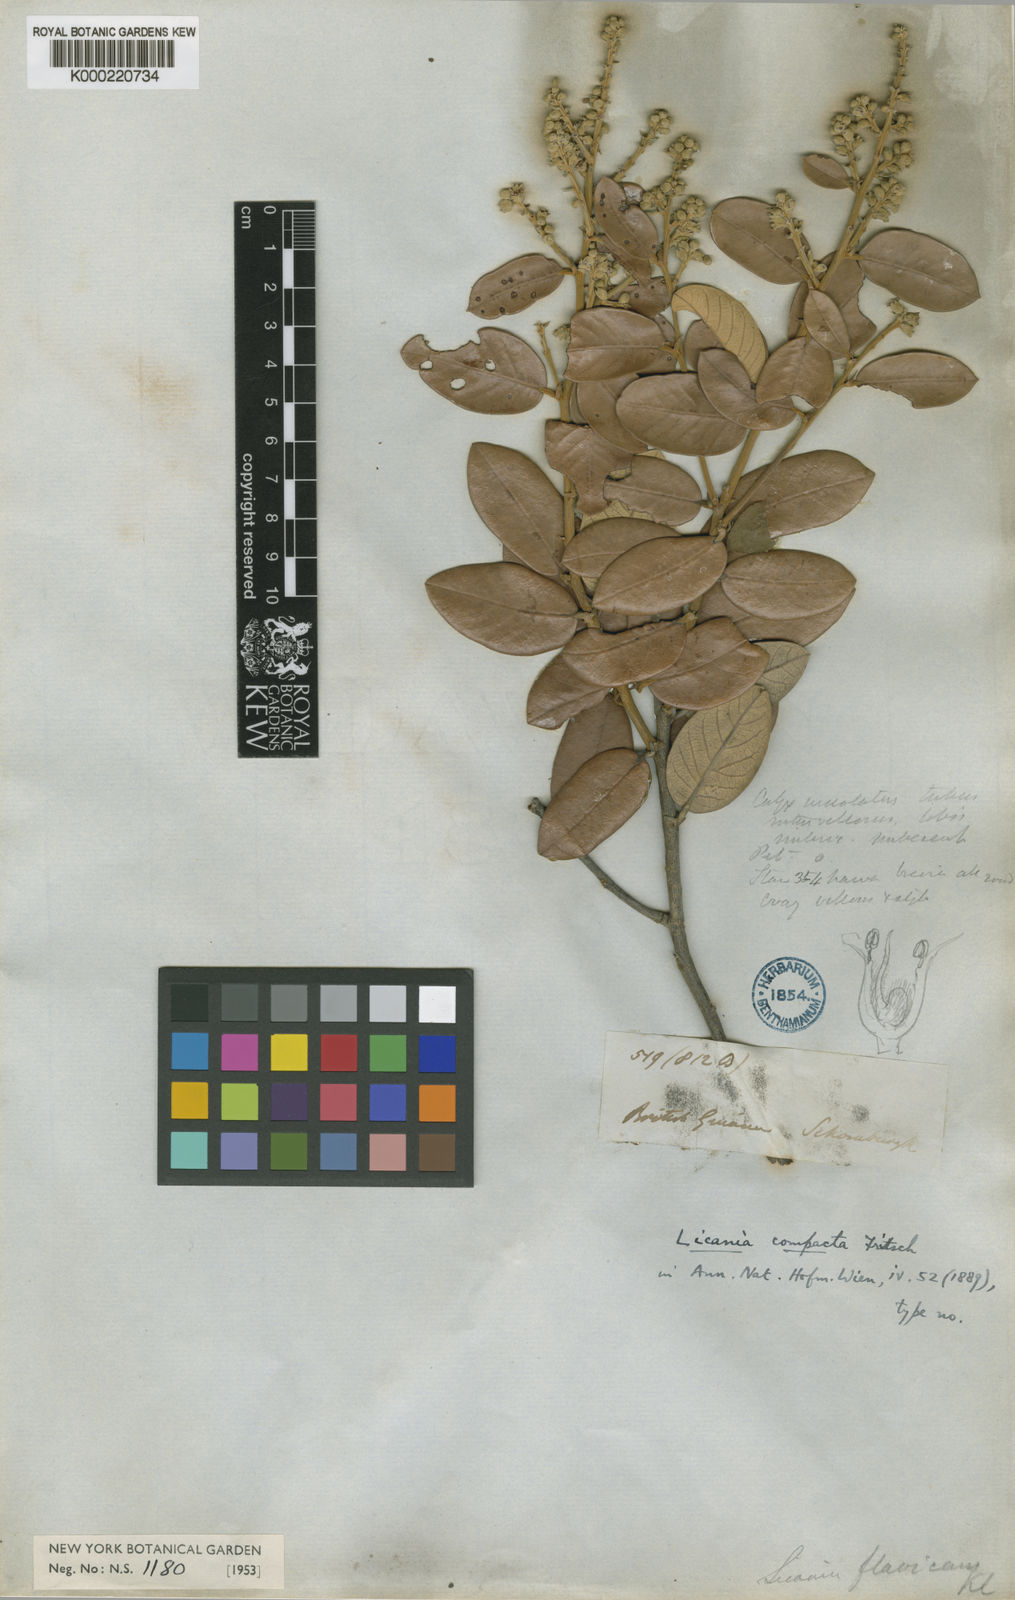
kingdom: Plantae
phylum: Tracheophyta
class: Magnoliopsida
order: Malpighiales
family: Chrysobalanaceae
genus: Licania
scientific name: Licania compacta
